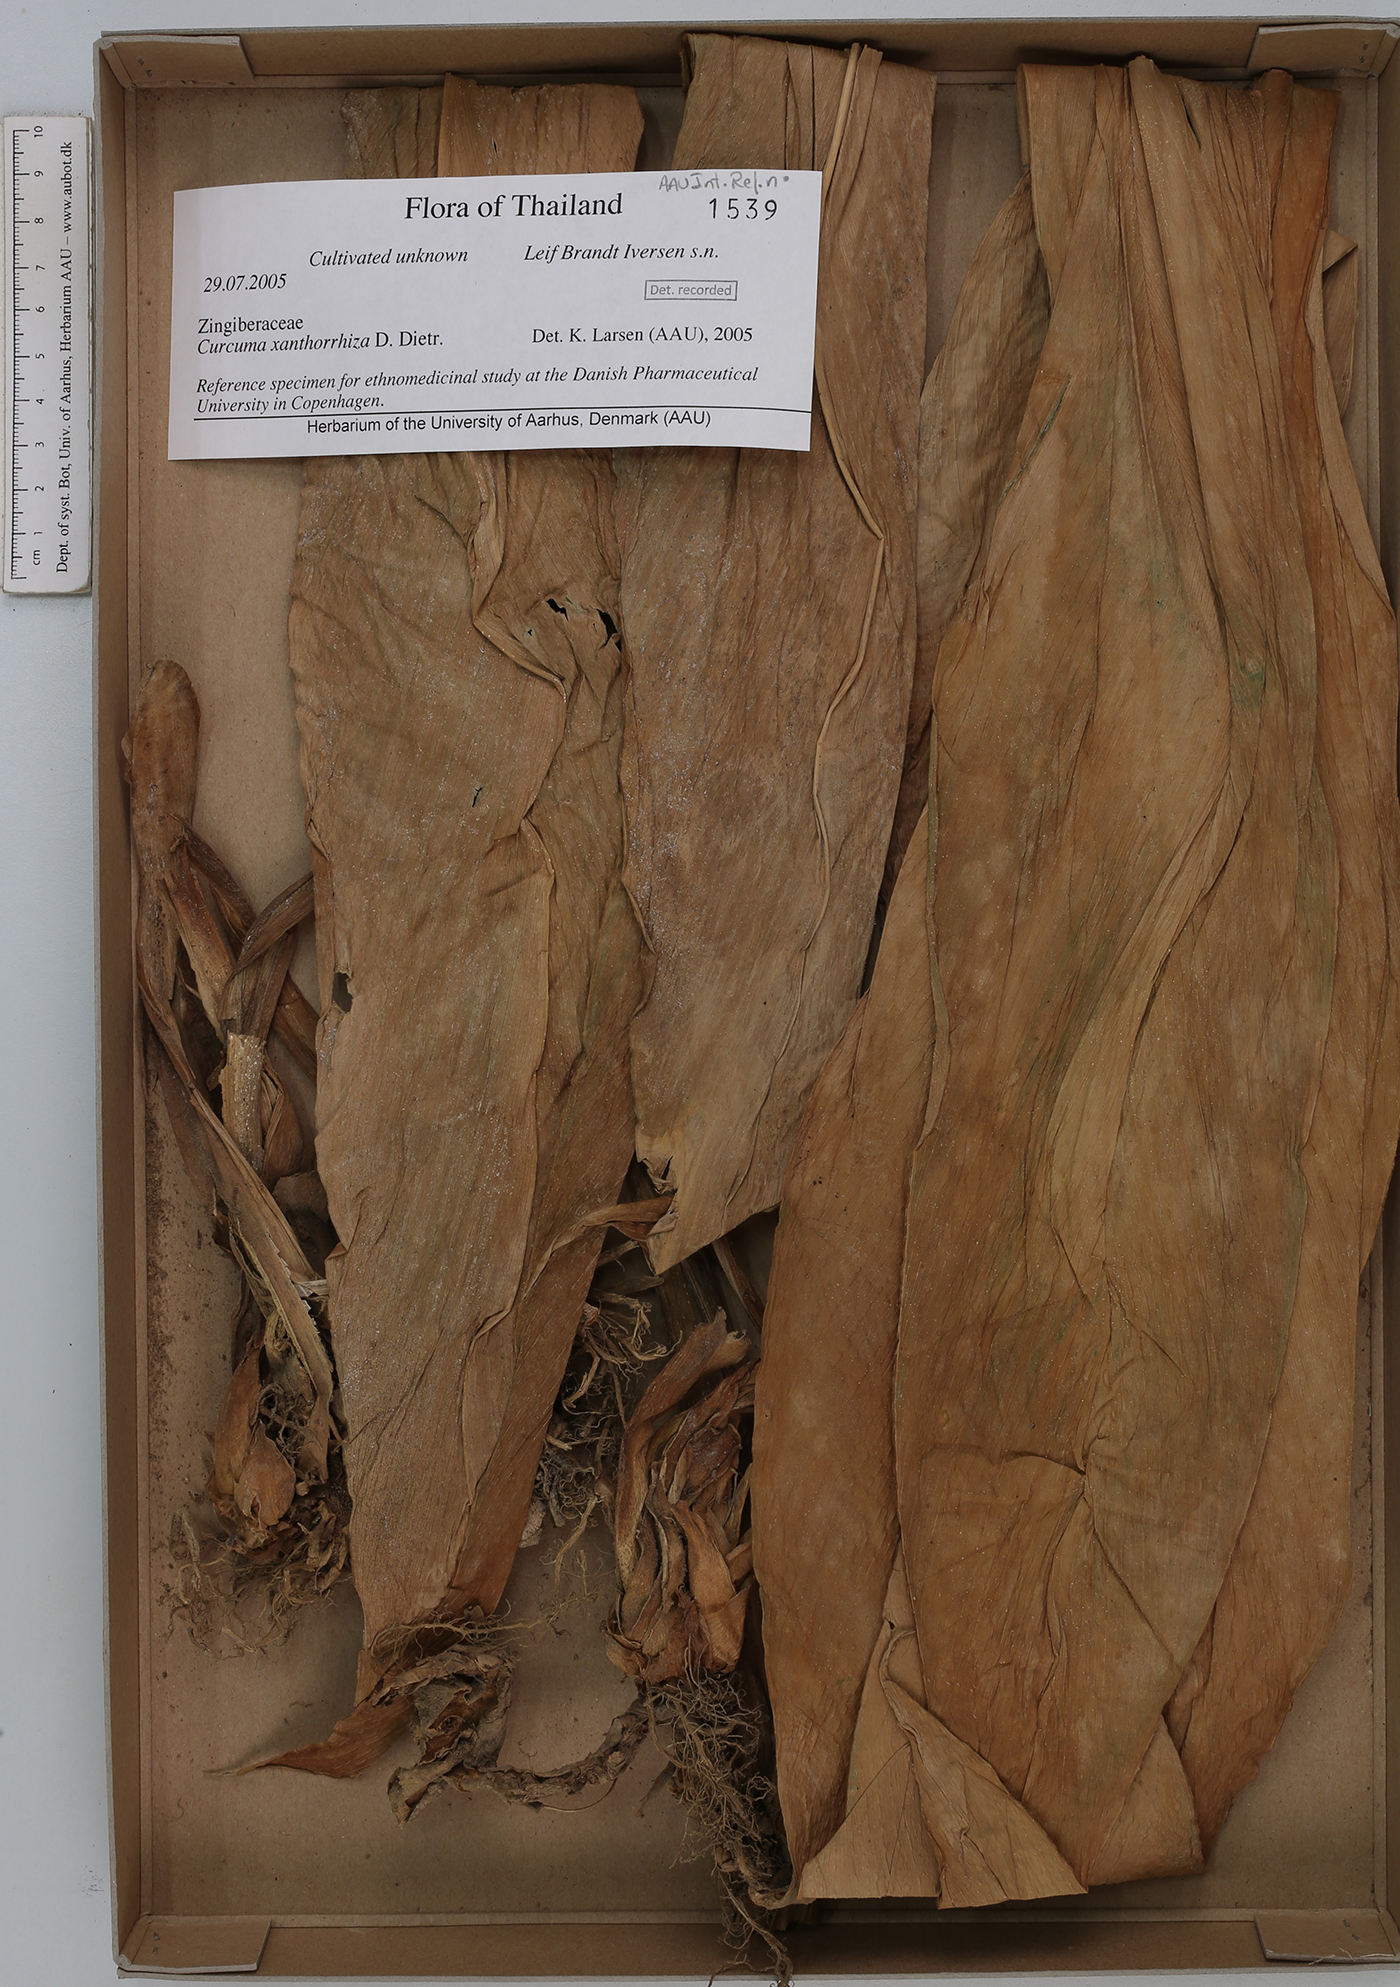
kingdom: Plantae
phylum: Tracheophyta
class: Liliopsida
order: Zingiberales
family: Zingiberaceae
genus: Curcuma
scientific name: Curcuma zanthorrhiza
